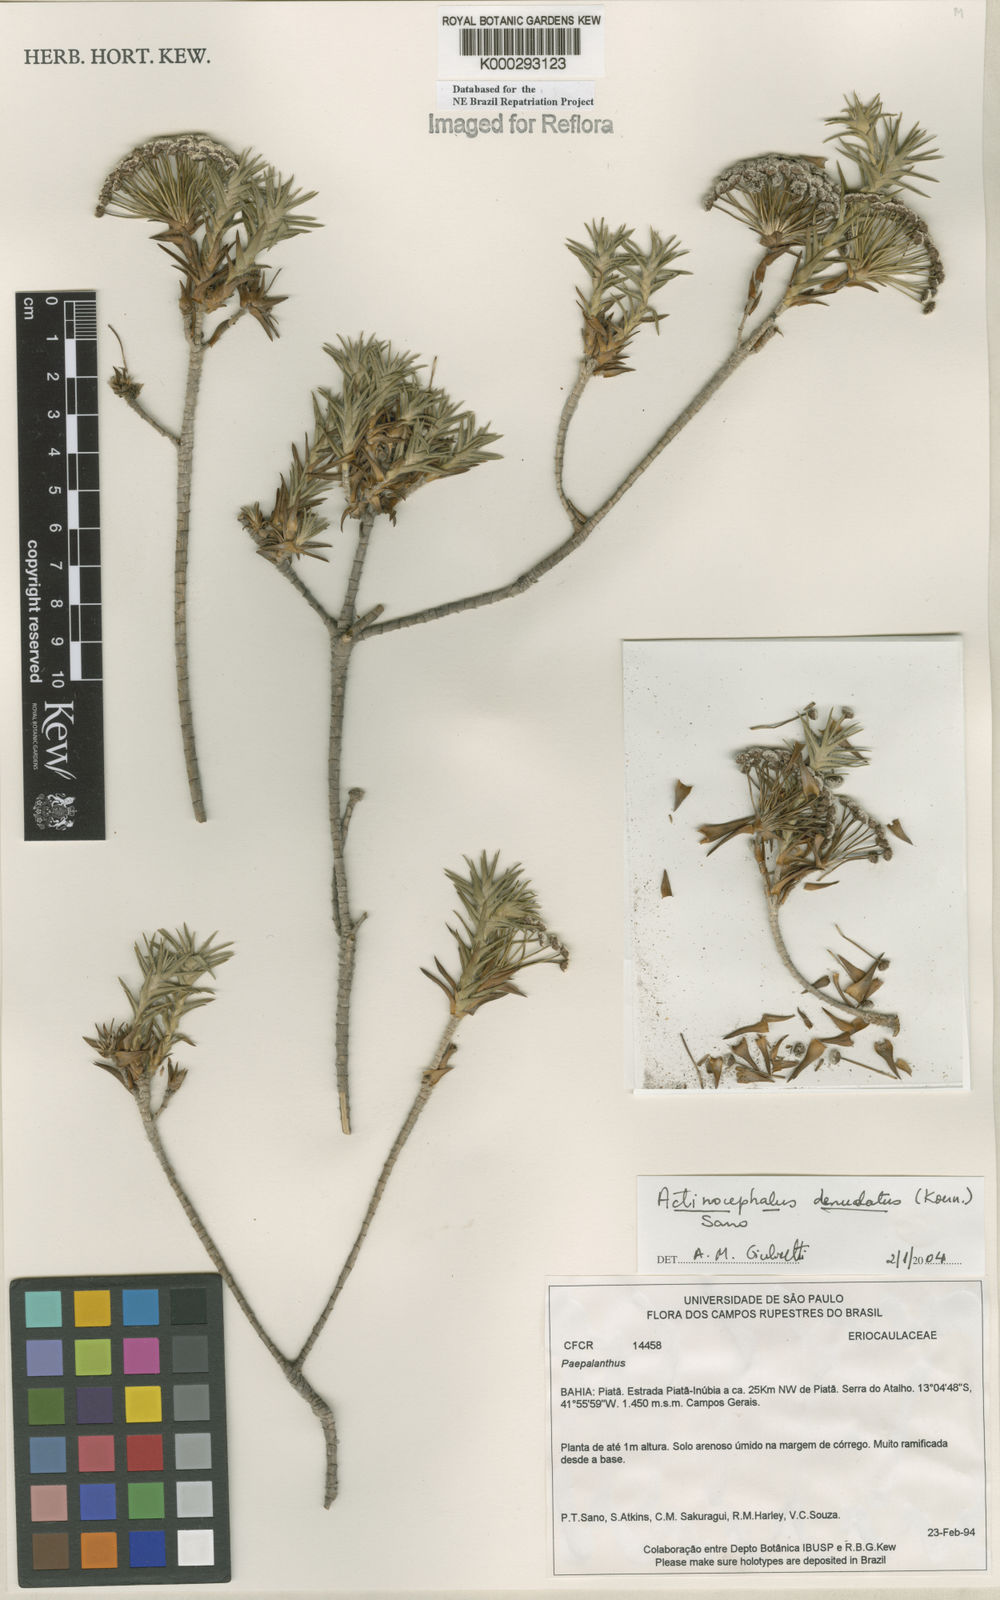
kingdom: Plantae
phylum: Tracheophyta
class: Liliopsida
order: Poales
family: Eriocaulaceae
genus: Paepalanthus
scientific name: Paepalanthus denudatus
